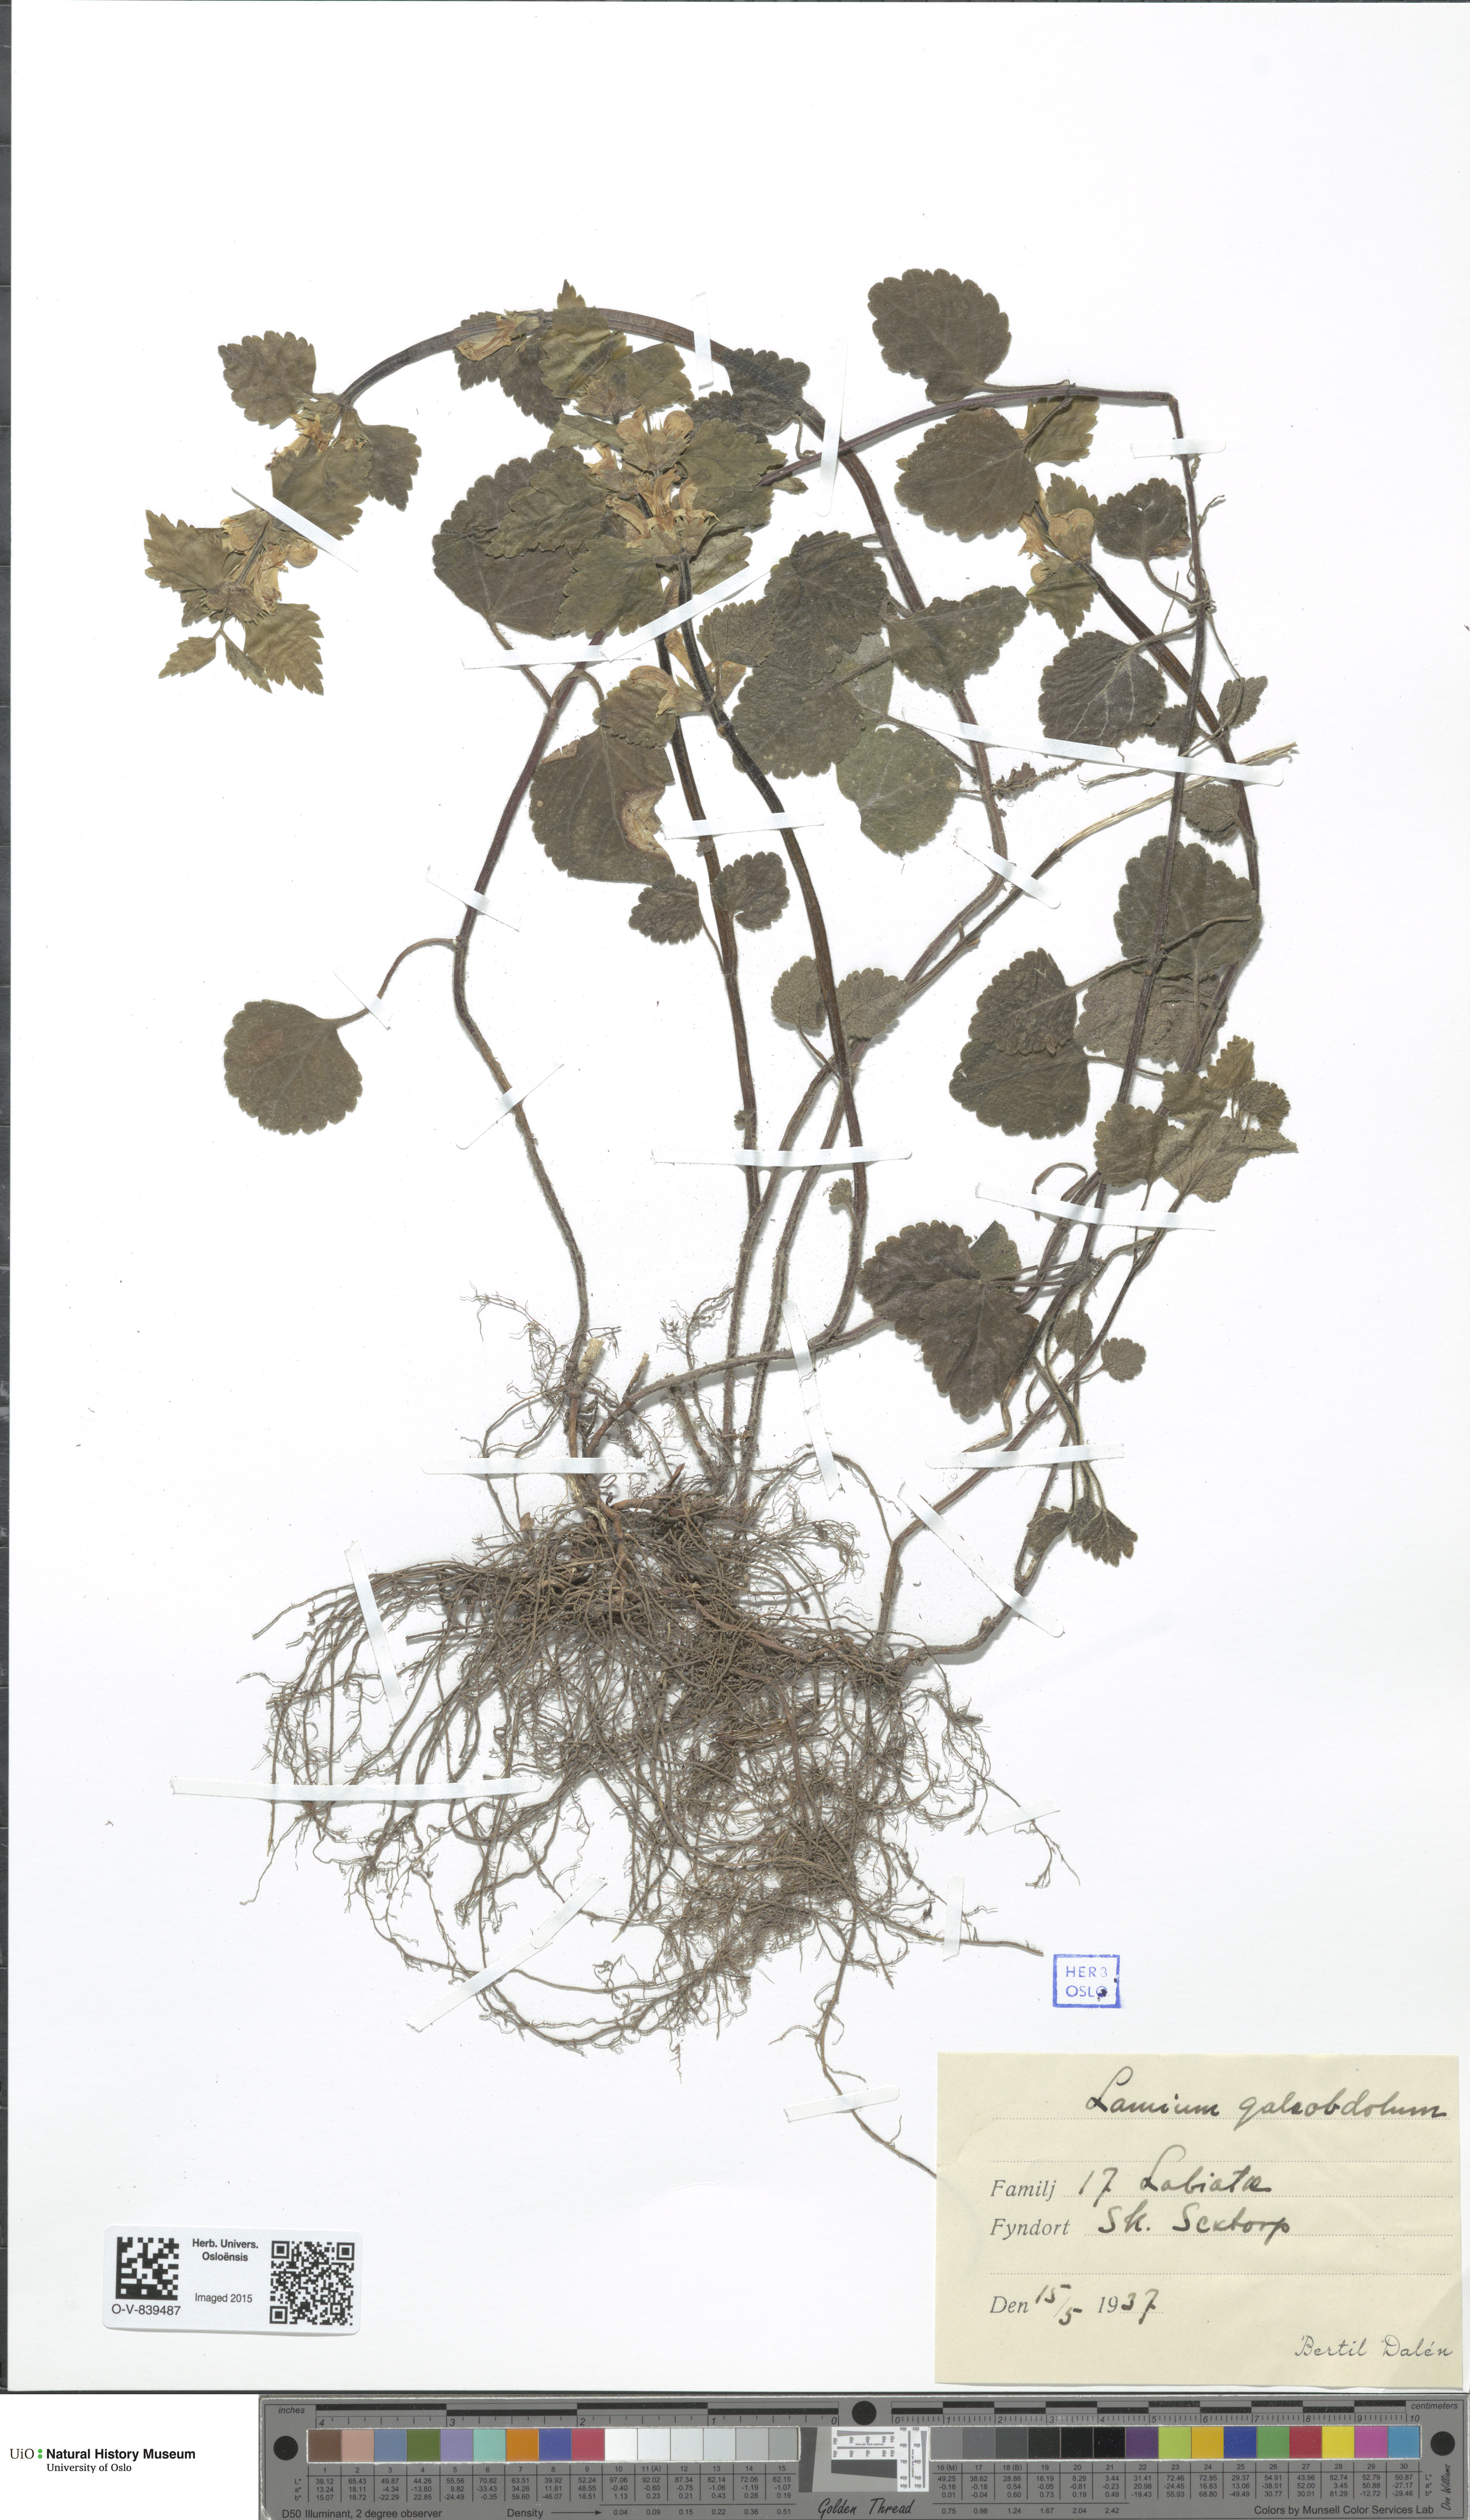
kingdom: Plantae
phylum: Tracheophyta
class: Magnoliopsida
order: Lamiales
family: Lamiaceae
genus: Lamium
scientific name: Lamium galeobdolon
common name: Yellow archangel
